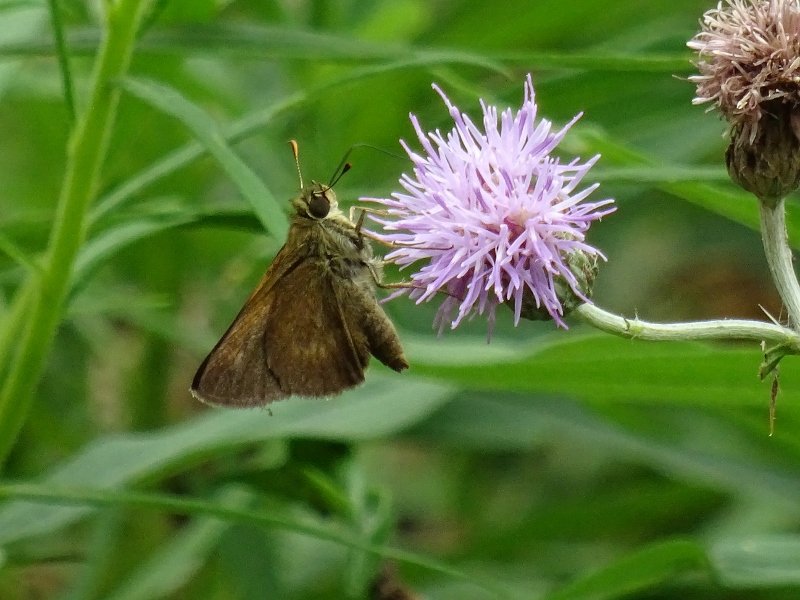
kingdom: Animalia
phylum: Arthropoda
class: Insecta
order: Lepidoptera
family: Hesperiidae
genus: Polites
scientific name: Polites egeremet
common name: Northern Broken-Dash
